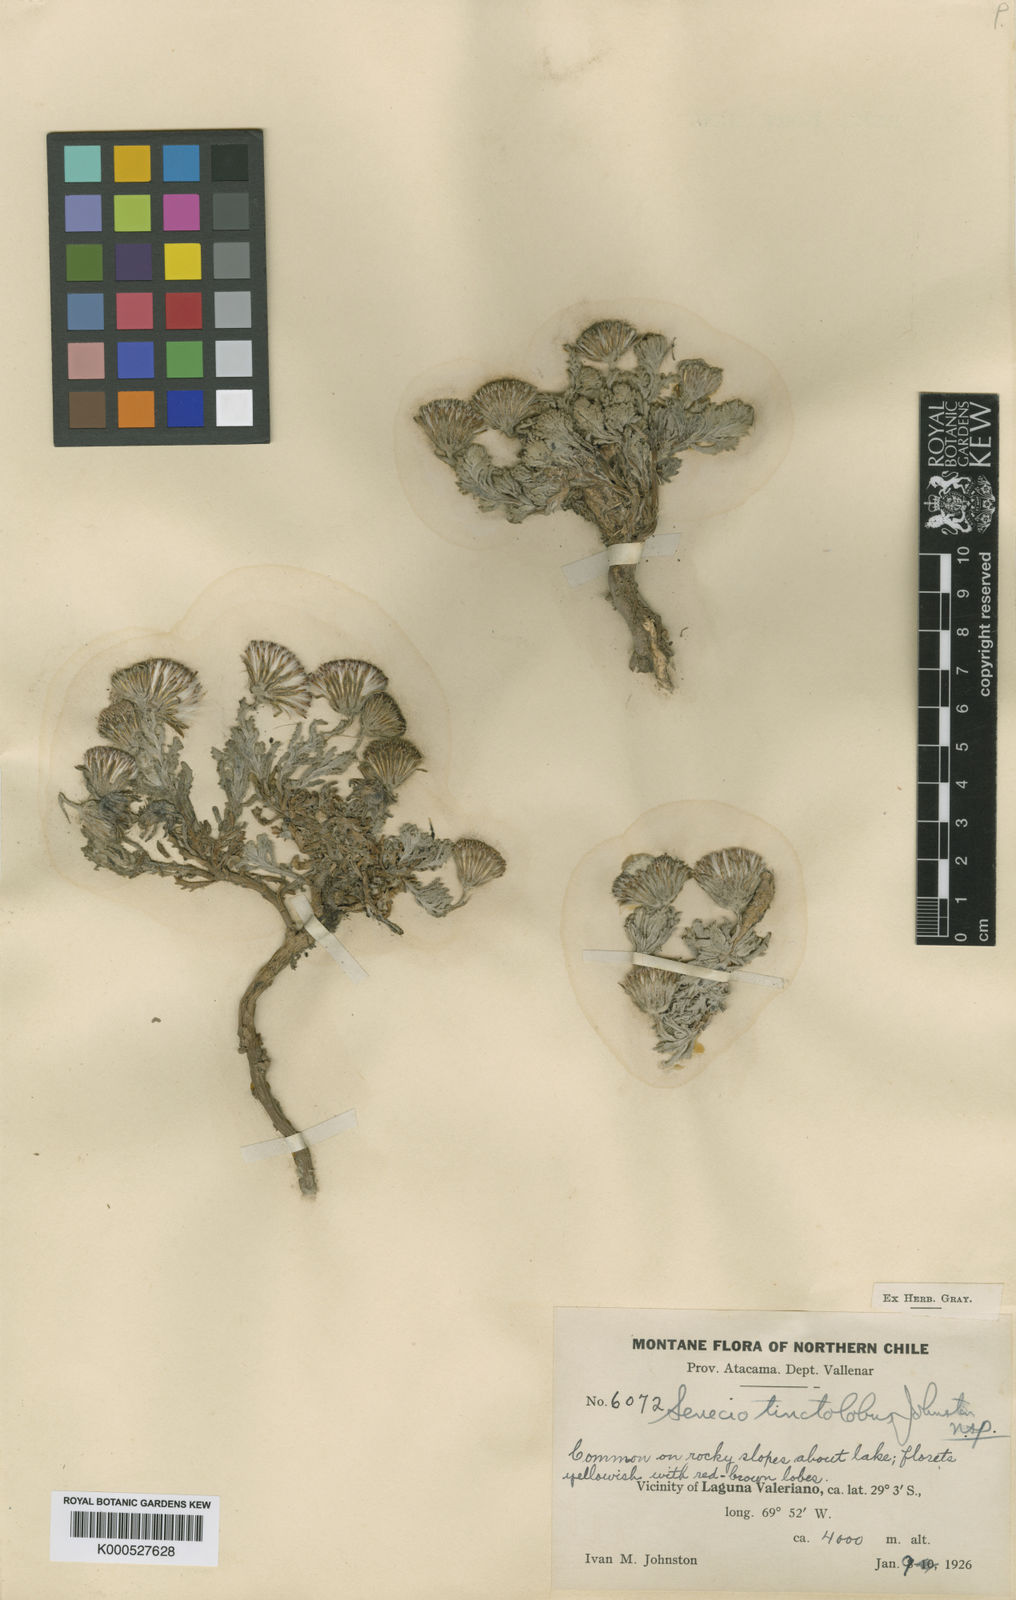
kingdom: Plantae
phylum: Tracheophyta
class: Magnoliopsida
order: Asterales
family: Asteraceae
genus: Senecio
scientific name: Senecio tinctolobus
